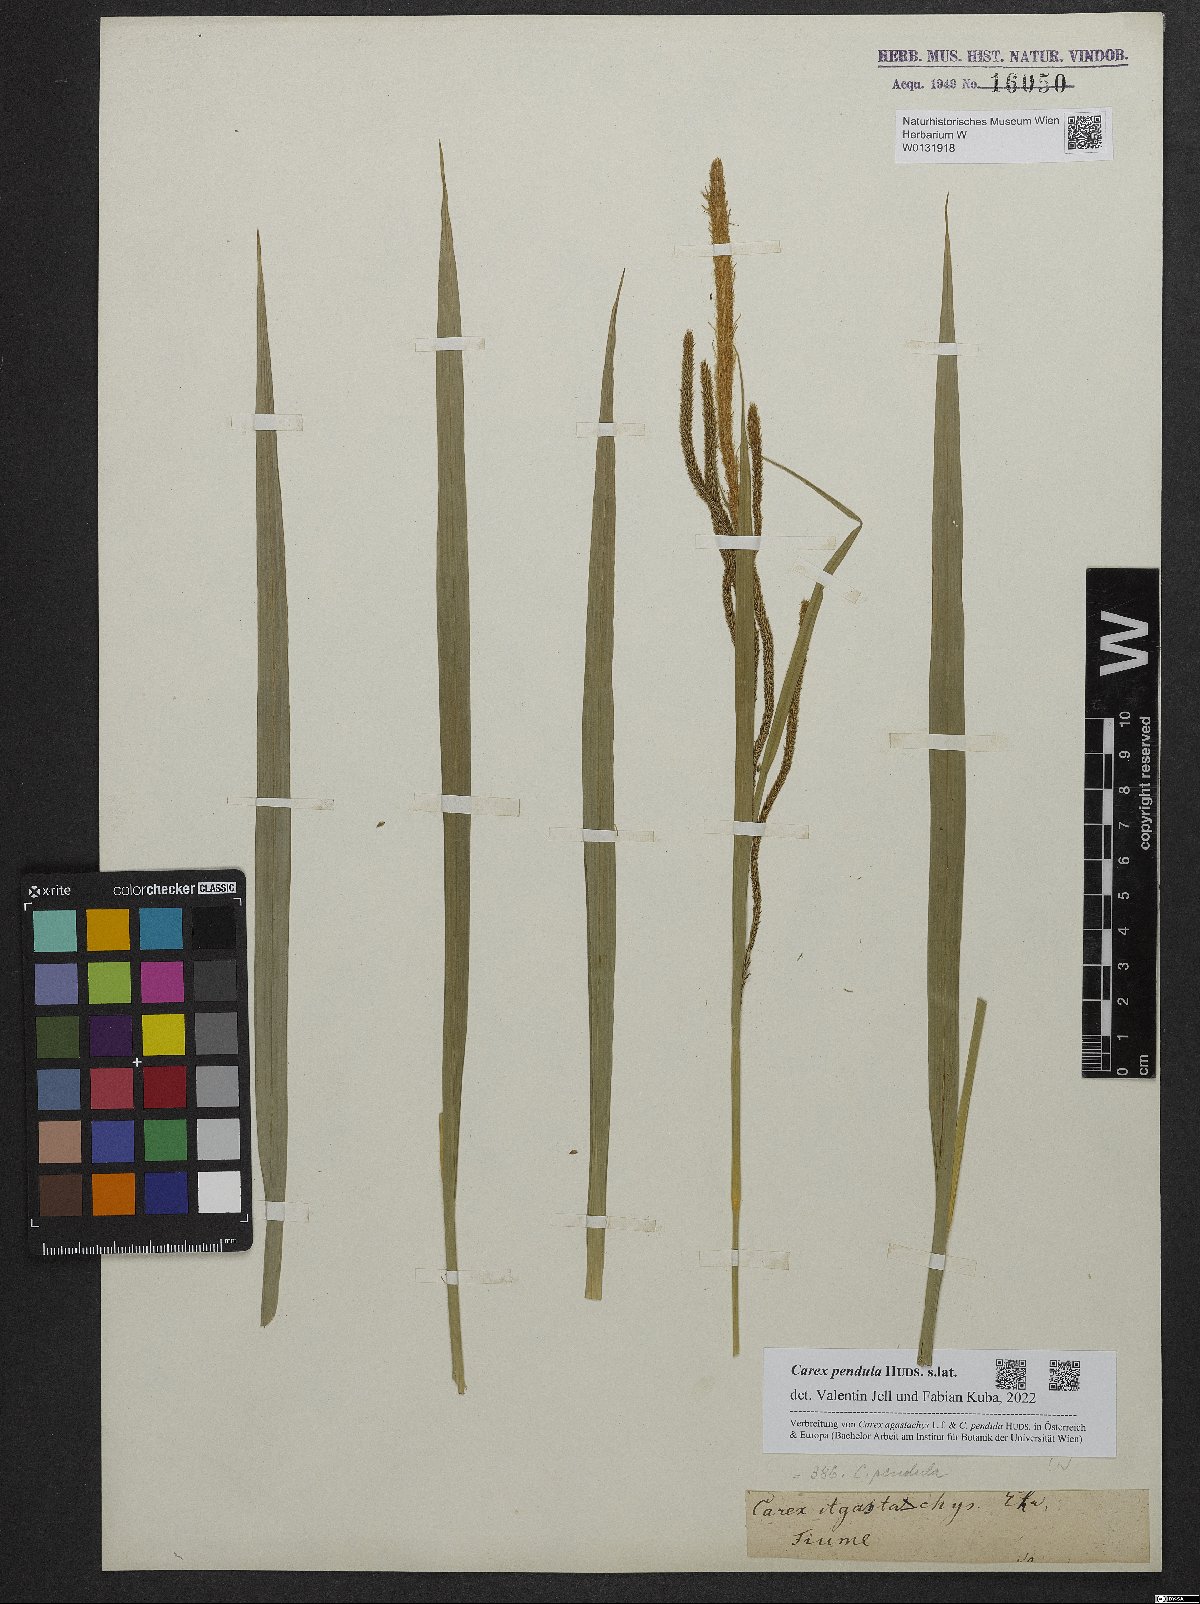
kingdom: Plantae
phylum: Tracheophyta
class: Liliopsida
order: Poales
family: Cyperaceae
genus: Carex
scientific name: Carex pendula
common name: Pendulous sedge
